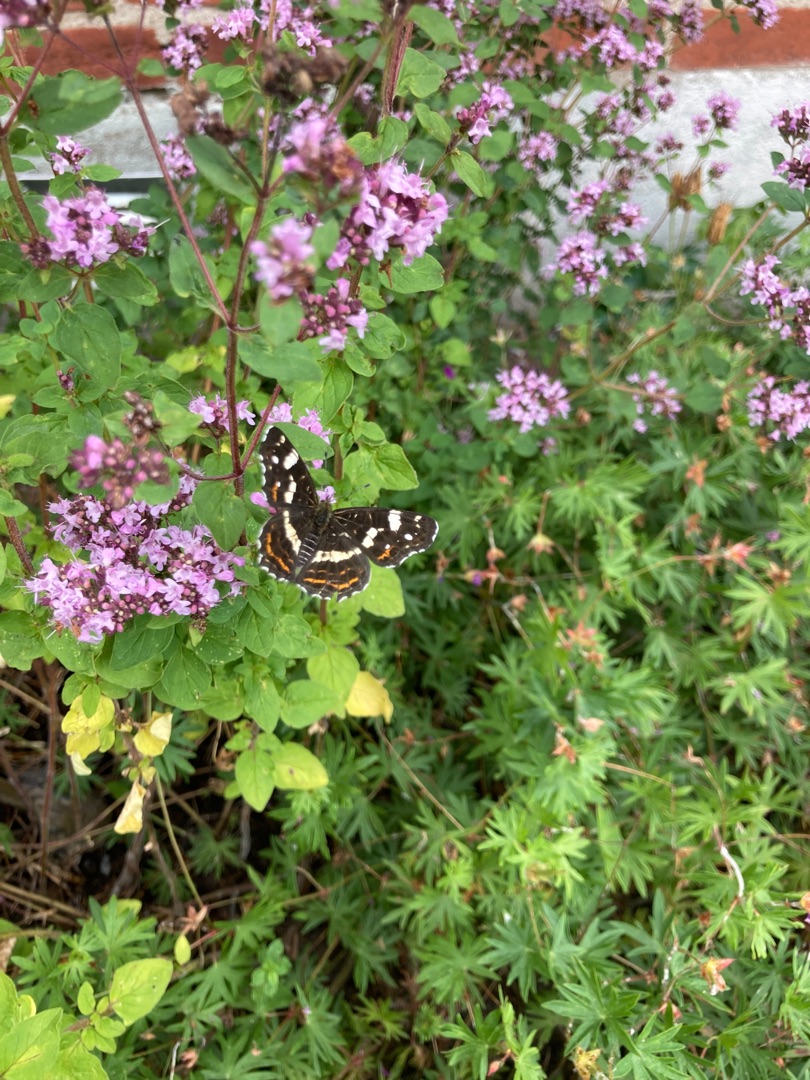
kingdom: Animalia
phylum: Arthropoda
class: Insecta
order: Lepidoptera
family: Nymphalidae
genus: Araschnia
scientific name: Araschnia levana
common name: Nældesommerfugl
